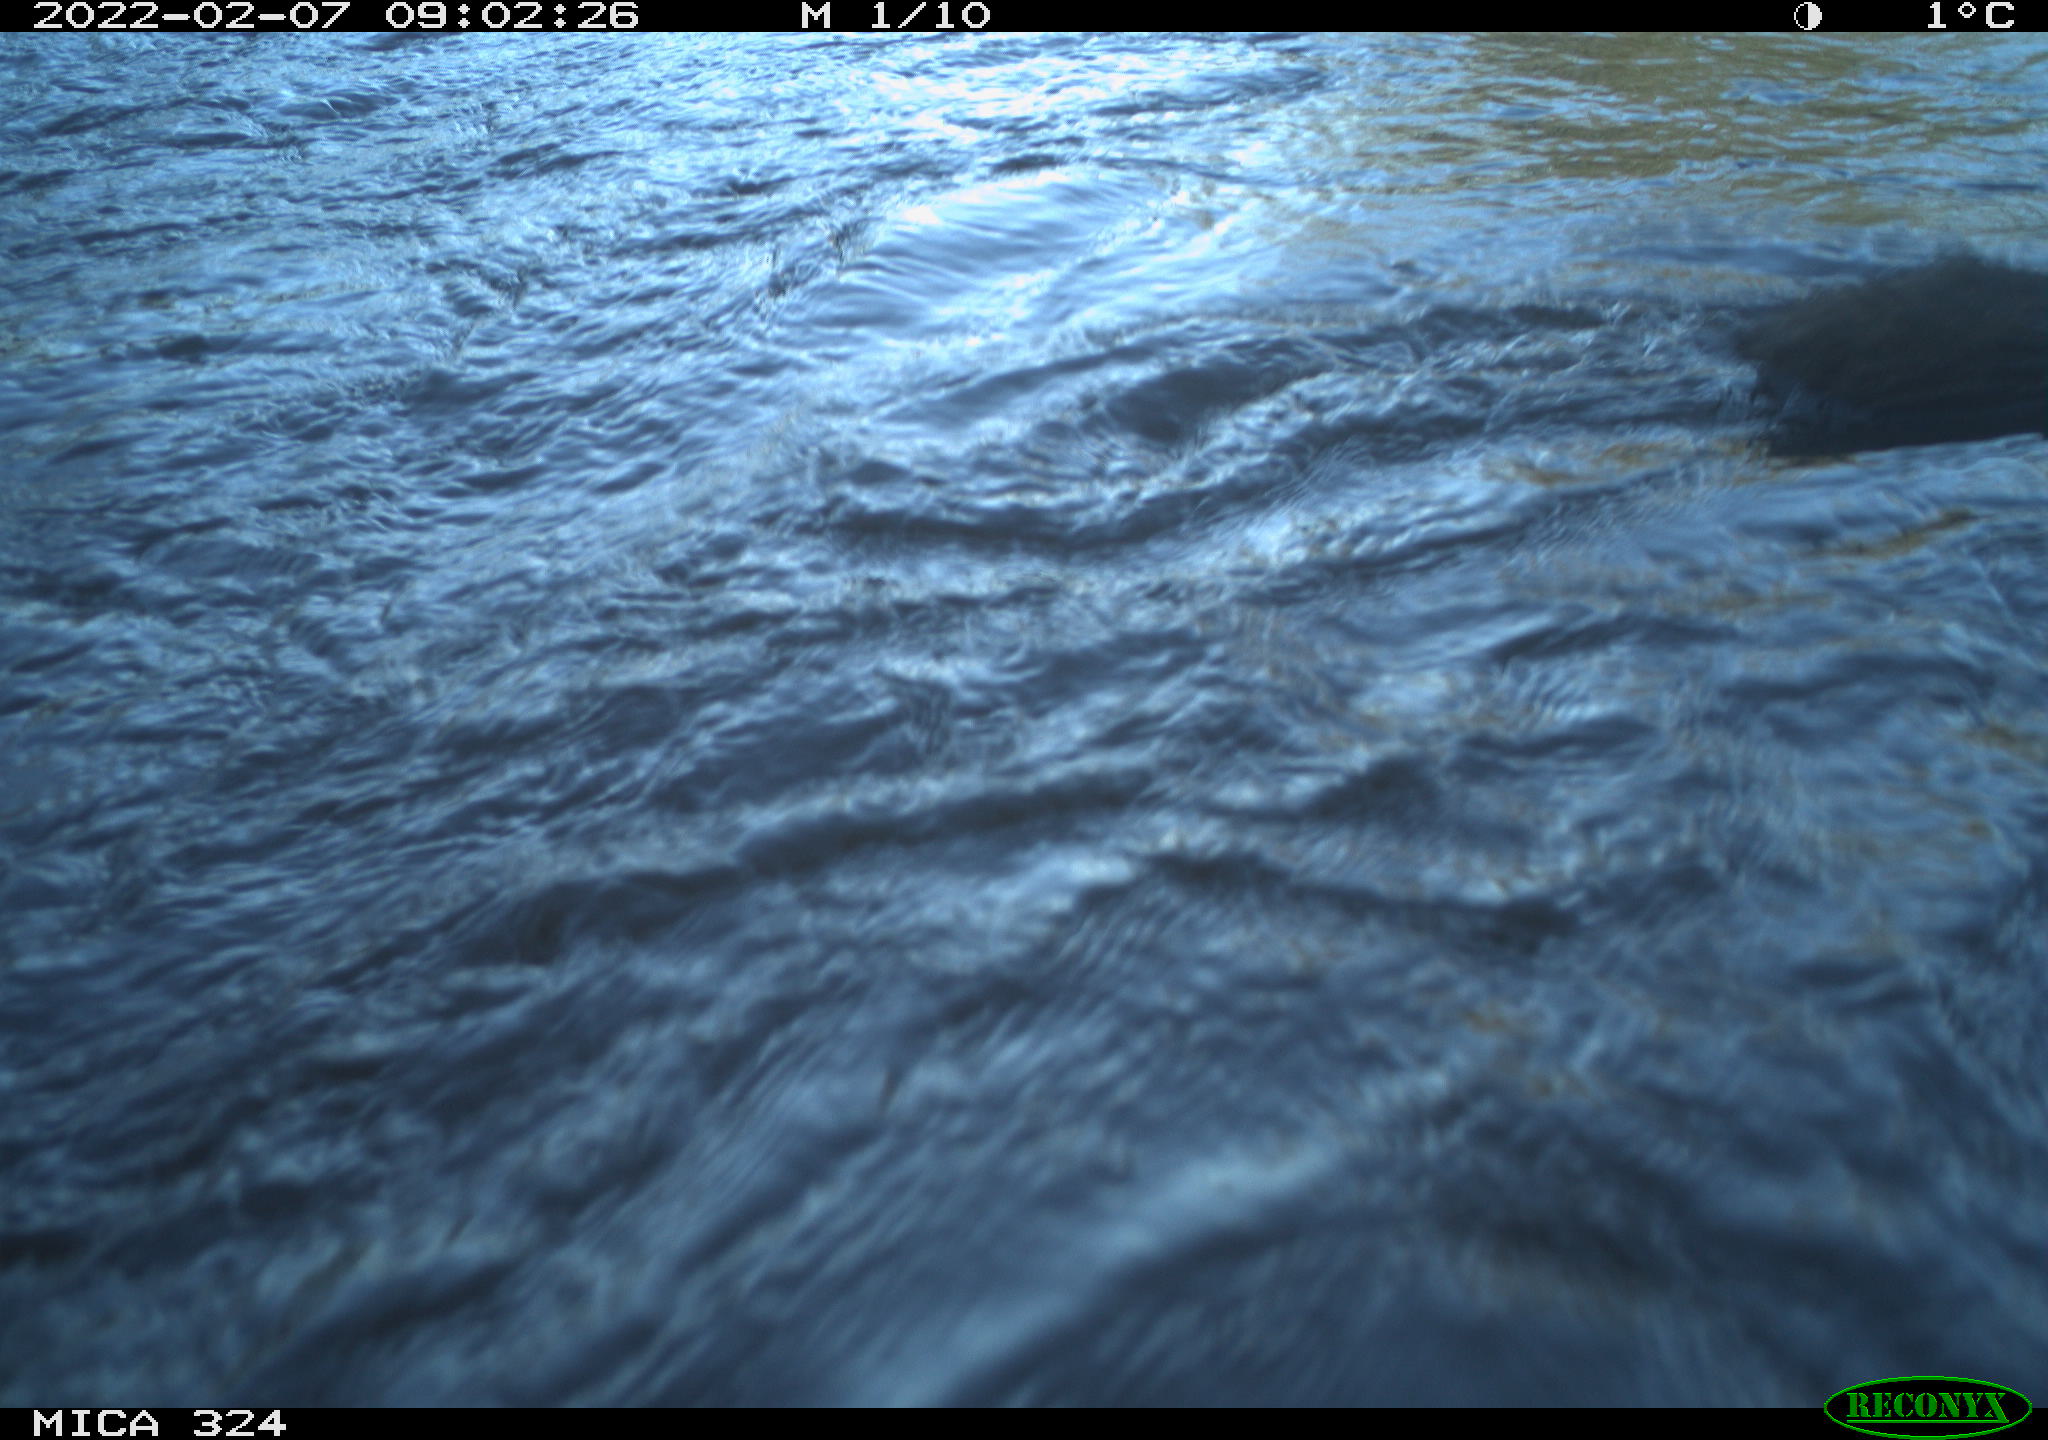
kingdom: Animalia
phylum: Chordata
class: Mammalia
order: Rodentia
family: Cricetidae
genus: Ondatra
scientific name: Ondatra zibethicus
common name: Muskrat
